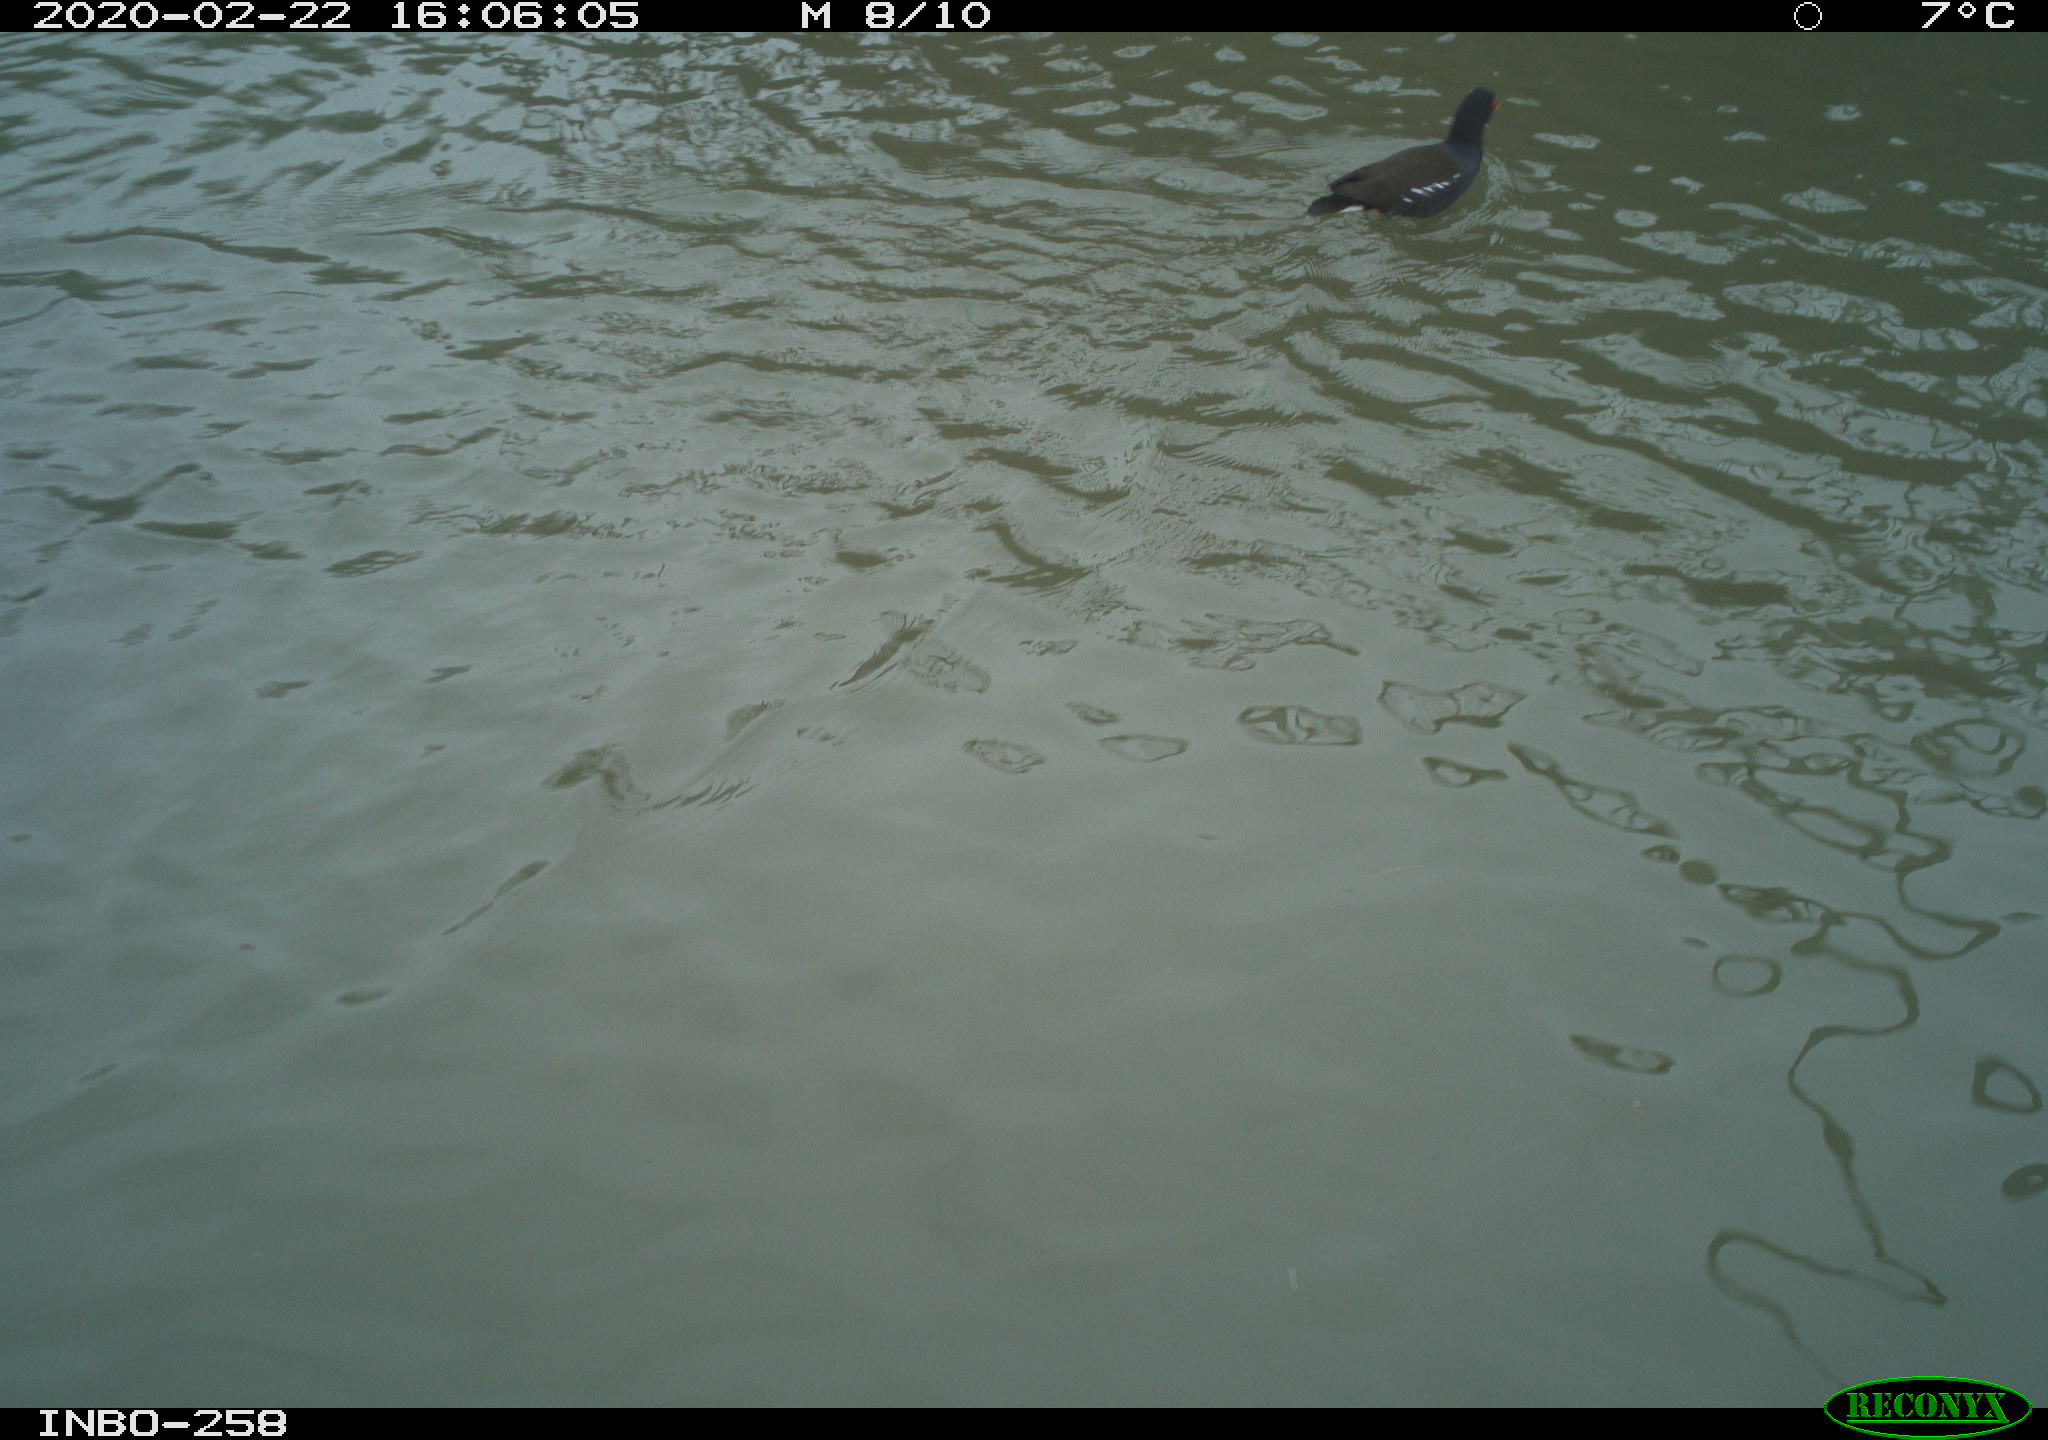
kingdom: Animalia
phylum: Chordata
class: Aves
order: Gruiformes
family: Rallidae
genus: Gallinula
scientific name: Gallinula chloropus
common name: Common moorhen
